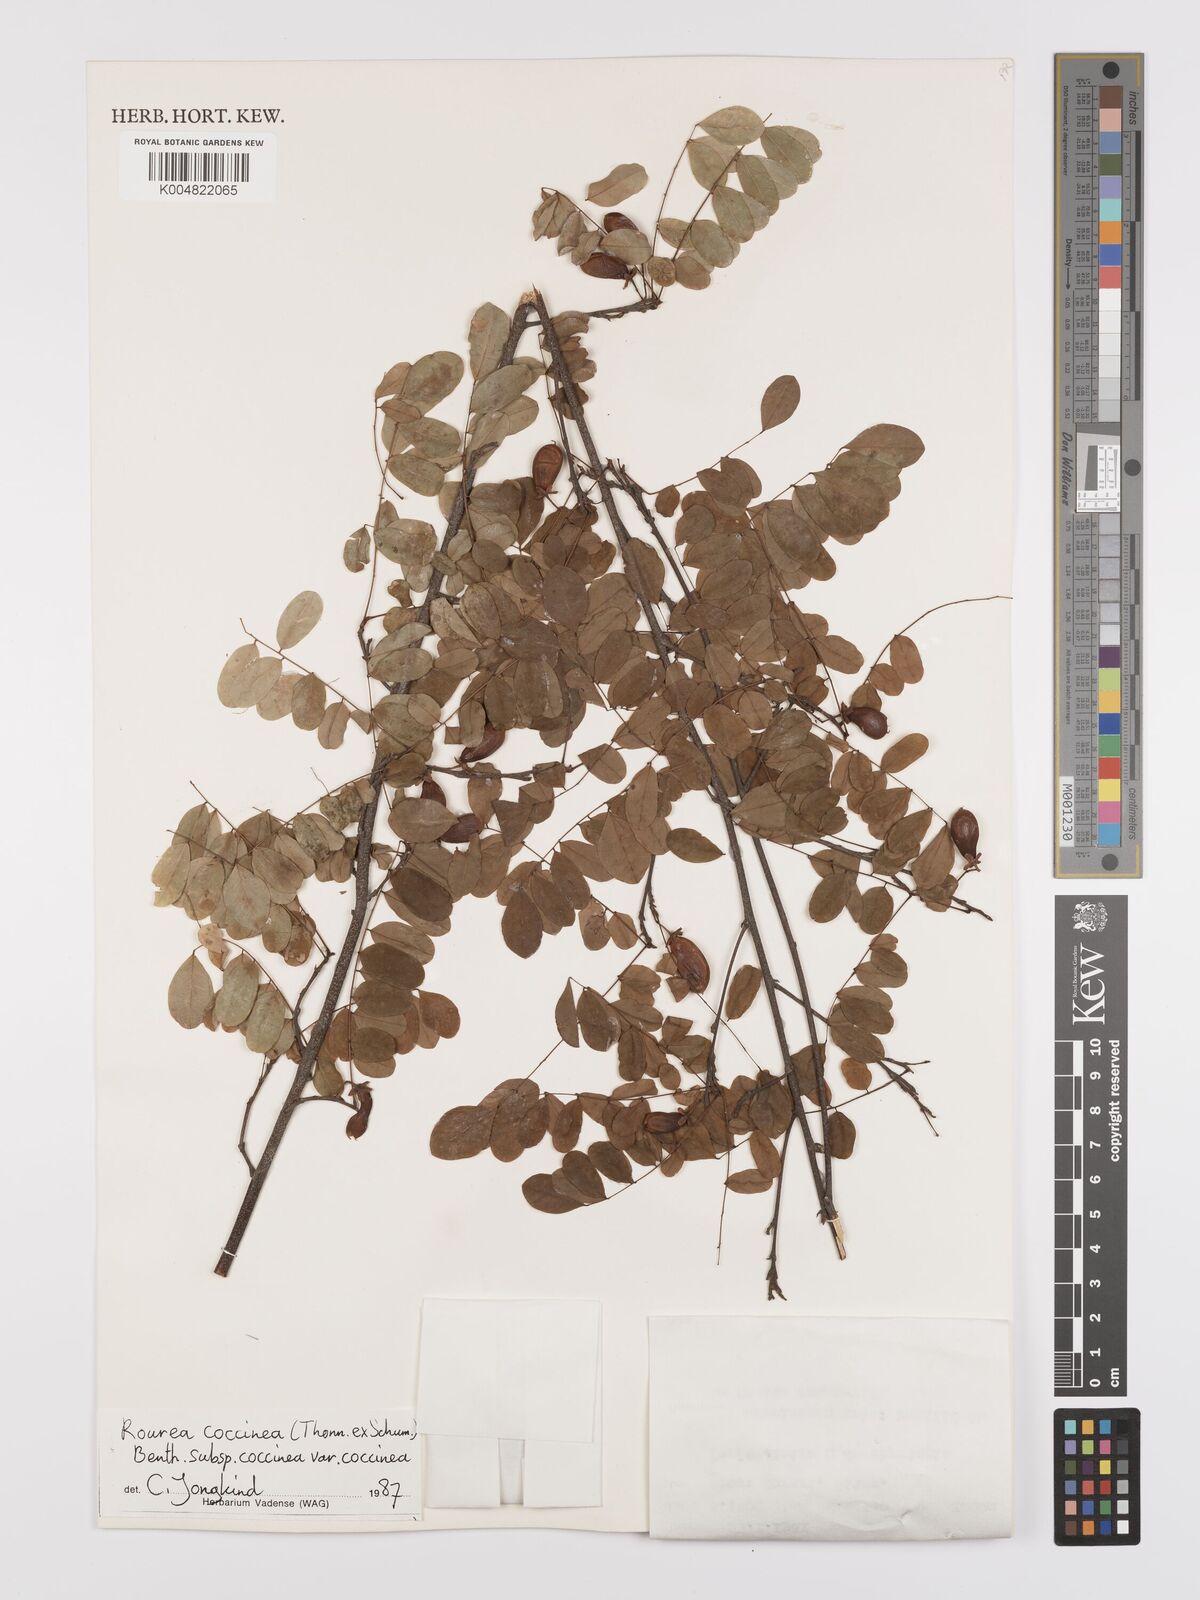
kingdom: Plantae
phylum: Tracheophyta
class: Magnoliopsida
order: Oxalidales
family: Connaraceae
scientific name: Connaraceae
